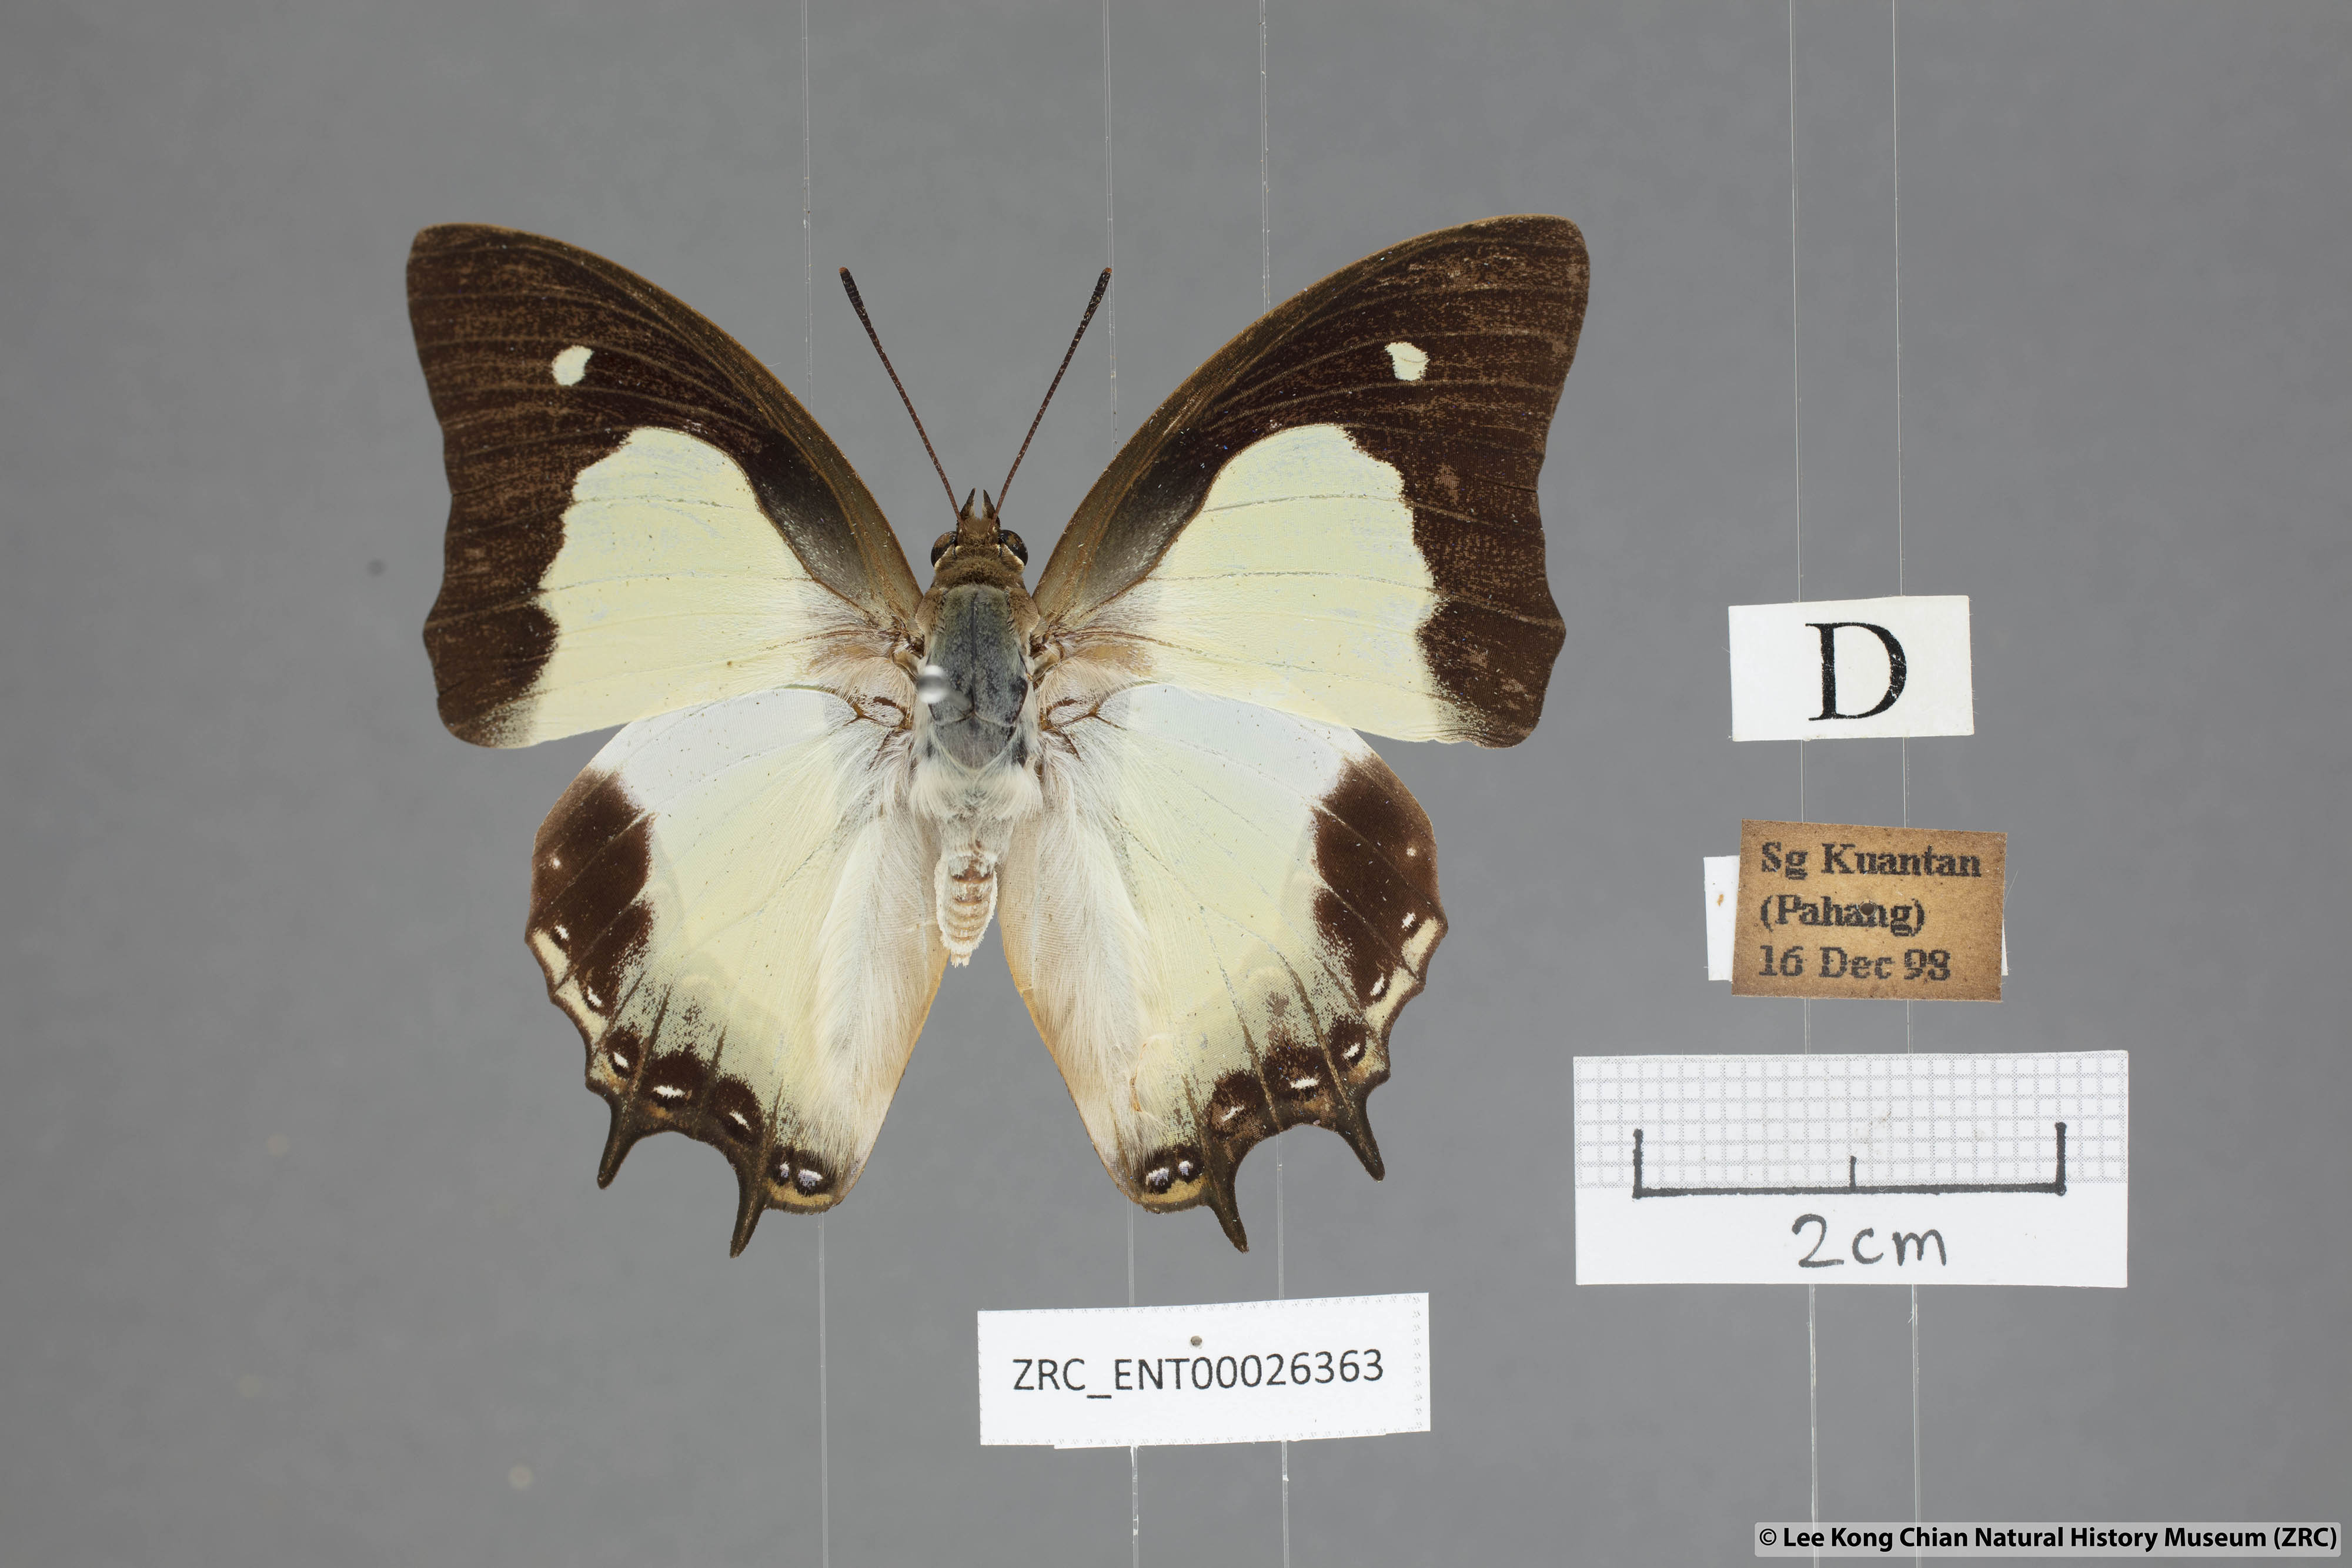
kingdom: Animalia
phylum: Arthropoda
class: Insecta
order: Lepidoptera
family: Nymphalidae
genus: Polyura
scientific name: Polyura moori
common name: Malayan nawab
